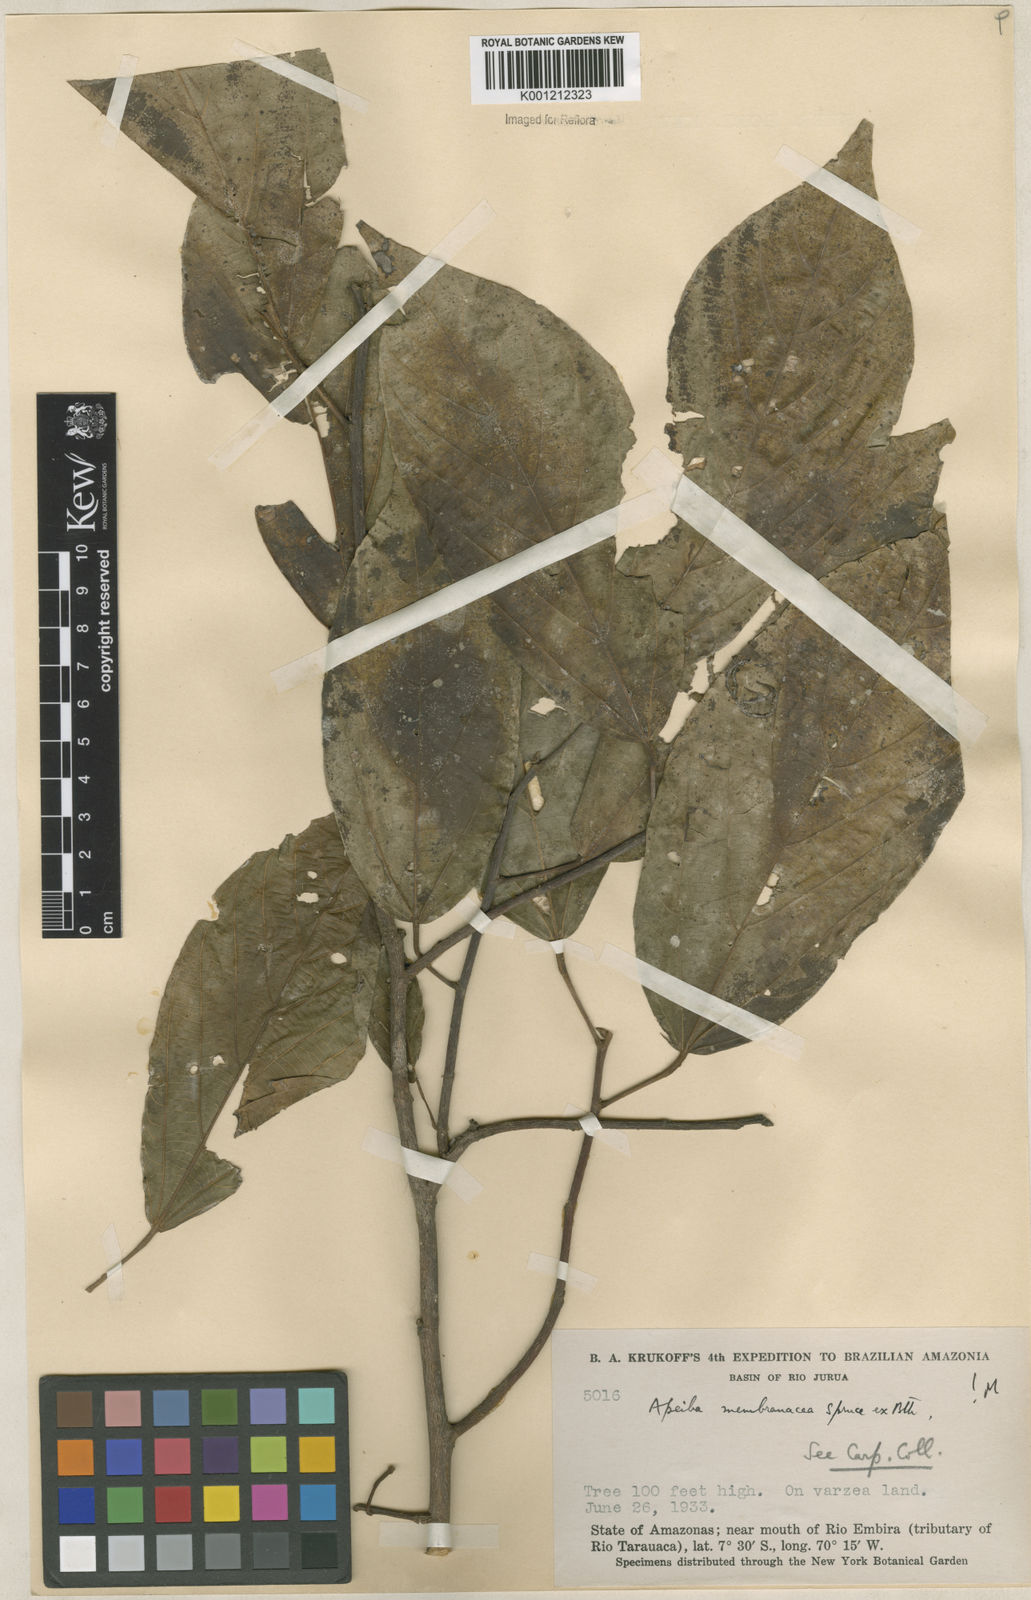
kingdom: Plantae
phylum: Tracheophyta
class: Magnoliopsida
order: Malvales
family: Malvaceae
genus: Apeiba
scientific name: Apeiba membranacea
